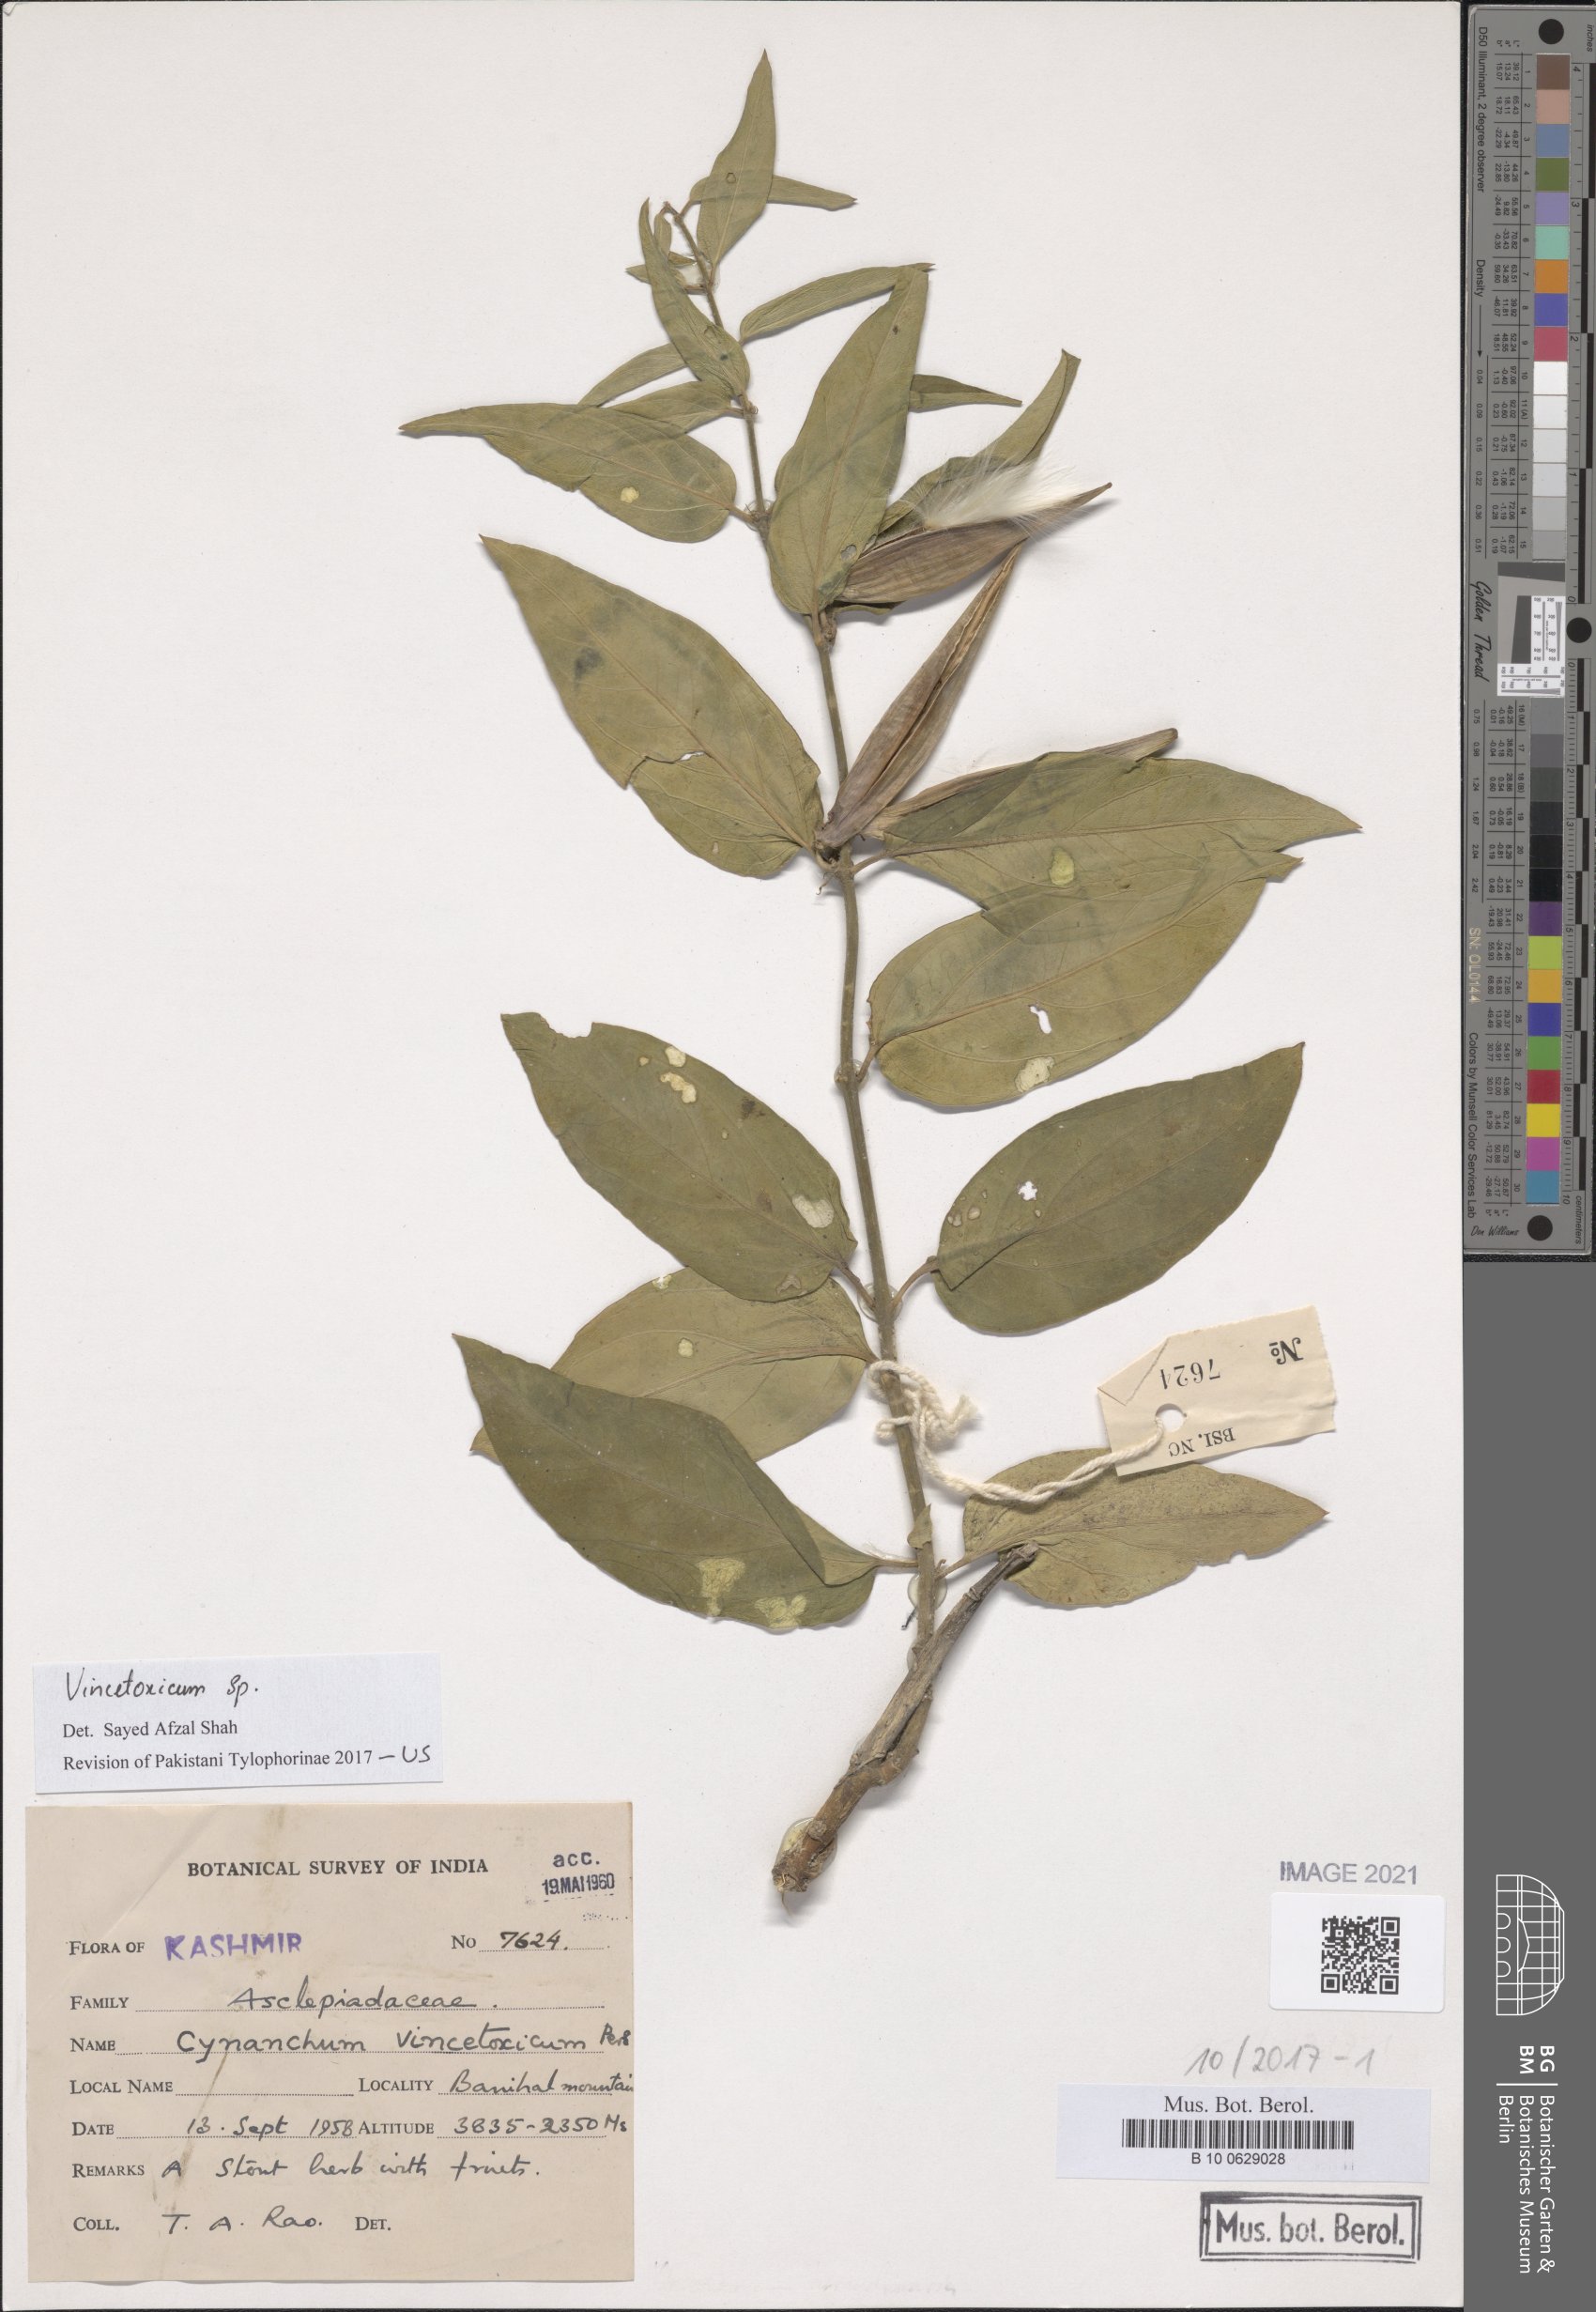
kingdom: Plantae
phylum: Tracheophyta
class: Magnoliopsida
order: Gentianales
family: Apocynaceae
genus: Vincetoxicum
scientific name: Vincetoxicum hirundinaria
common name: White swallowwort
